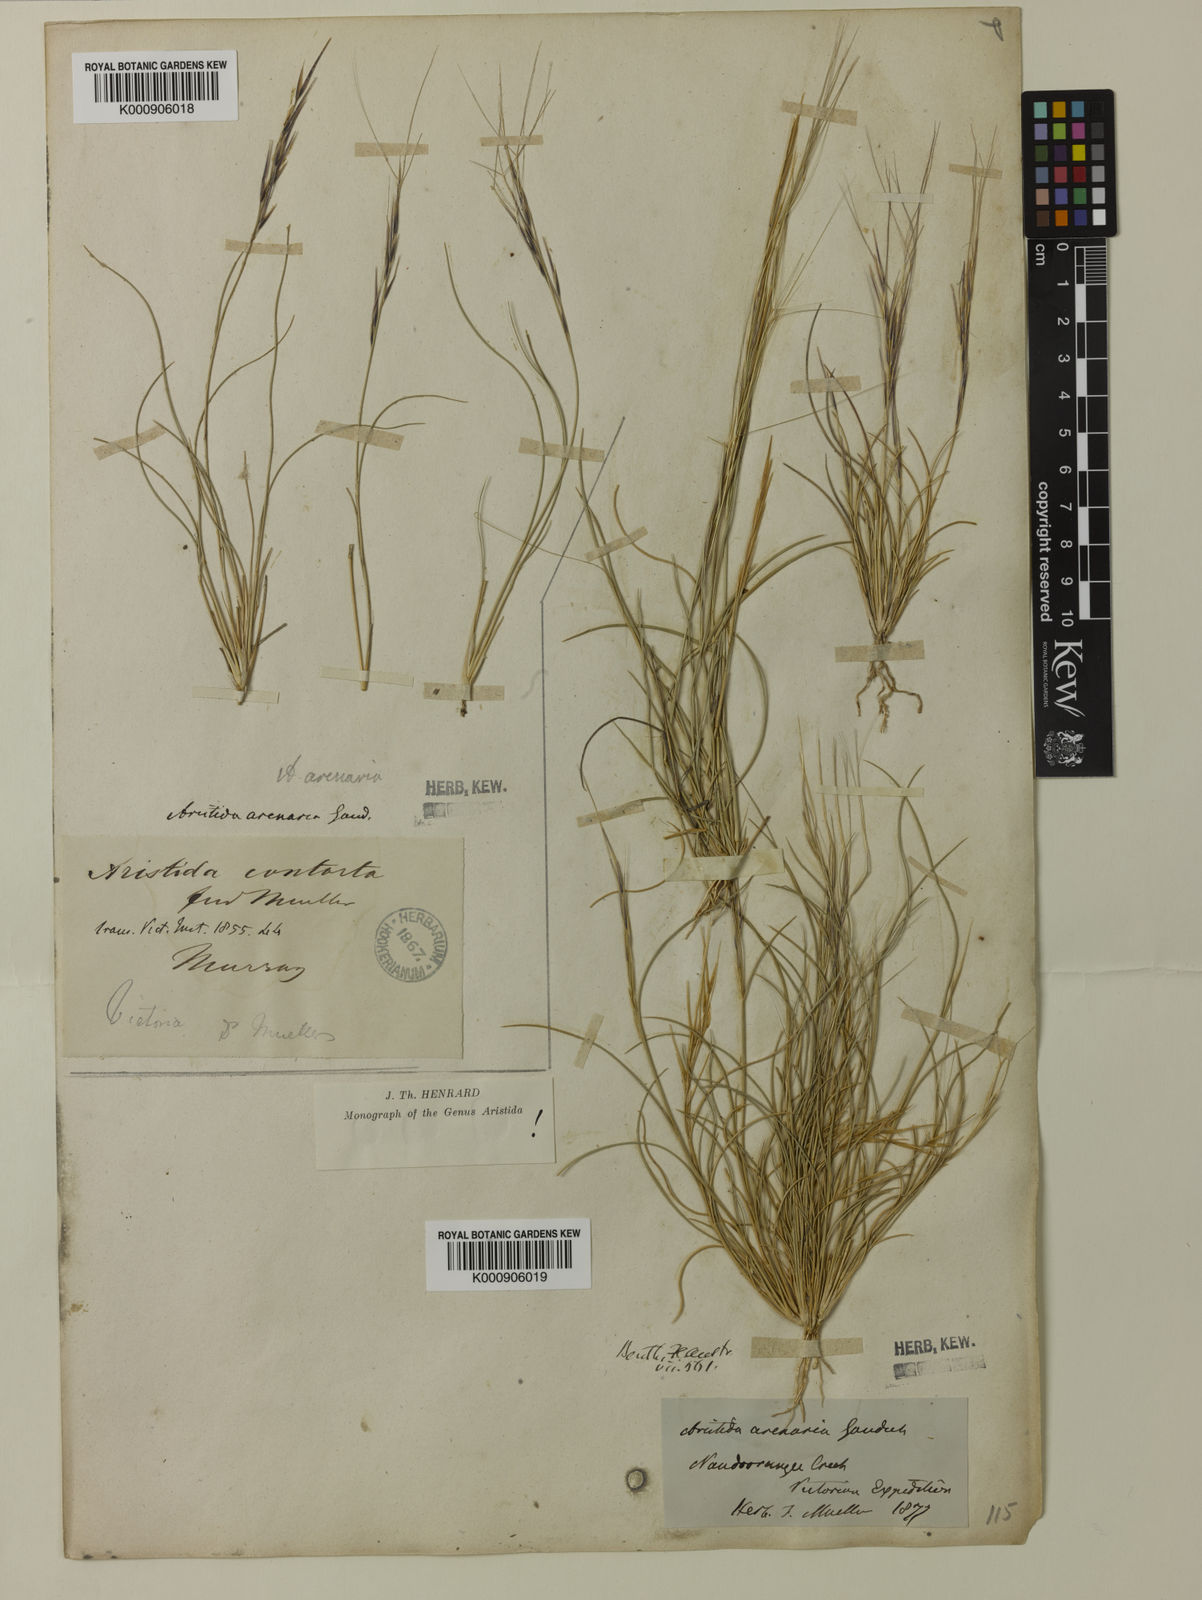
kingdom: Plantae
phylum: Tracheophyta
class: Liliopsida
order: Poales
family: Poaceae
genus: Aristida
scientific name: Aristida contorta
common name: Bunch kerosene grass
